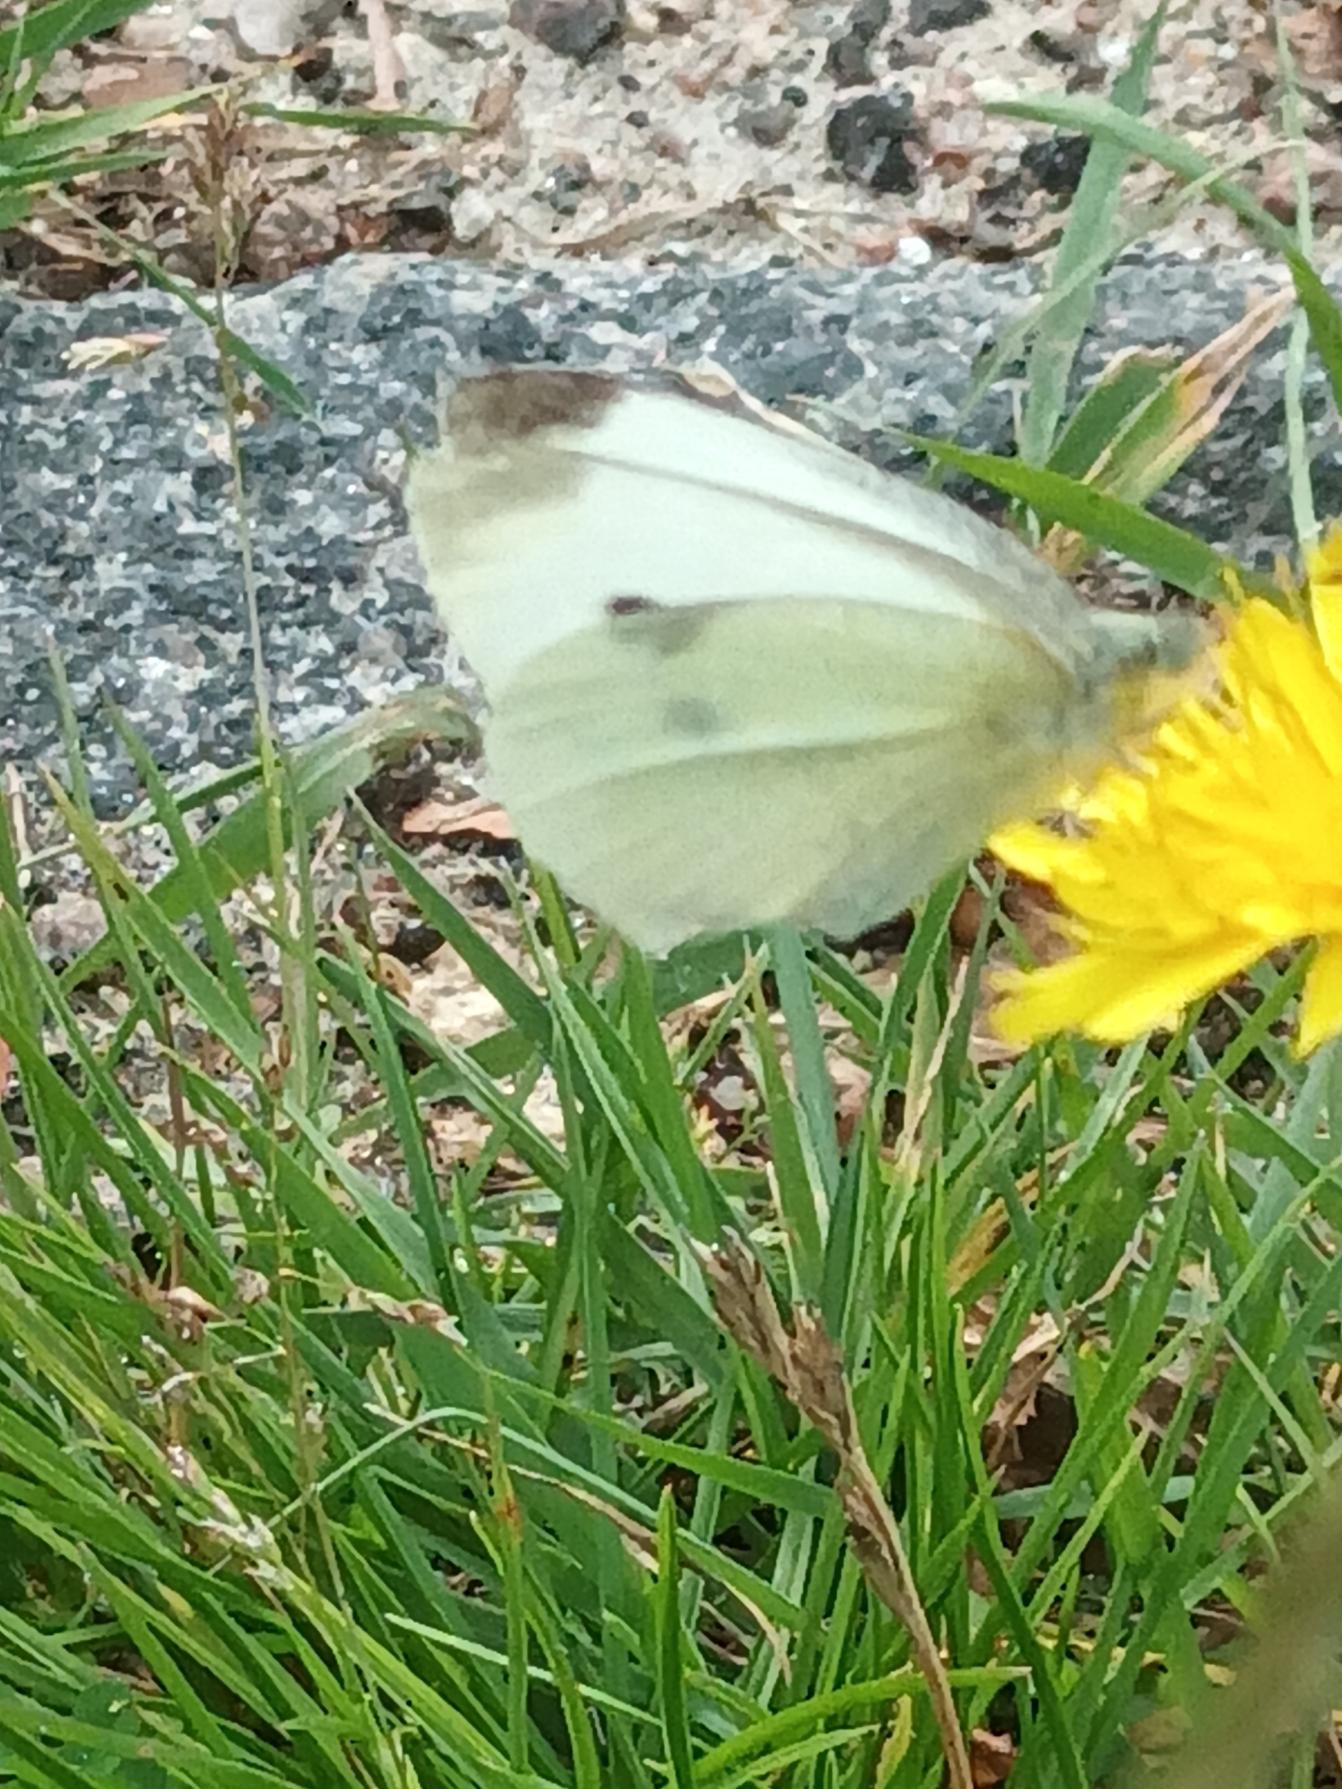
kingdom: Animalia
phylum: Arthropoda
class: Insecta
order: Lepidoptera
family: Pieridae
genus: Pieris
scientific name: Pieris rapae
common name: Lille kålsommerfugl
